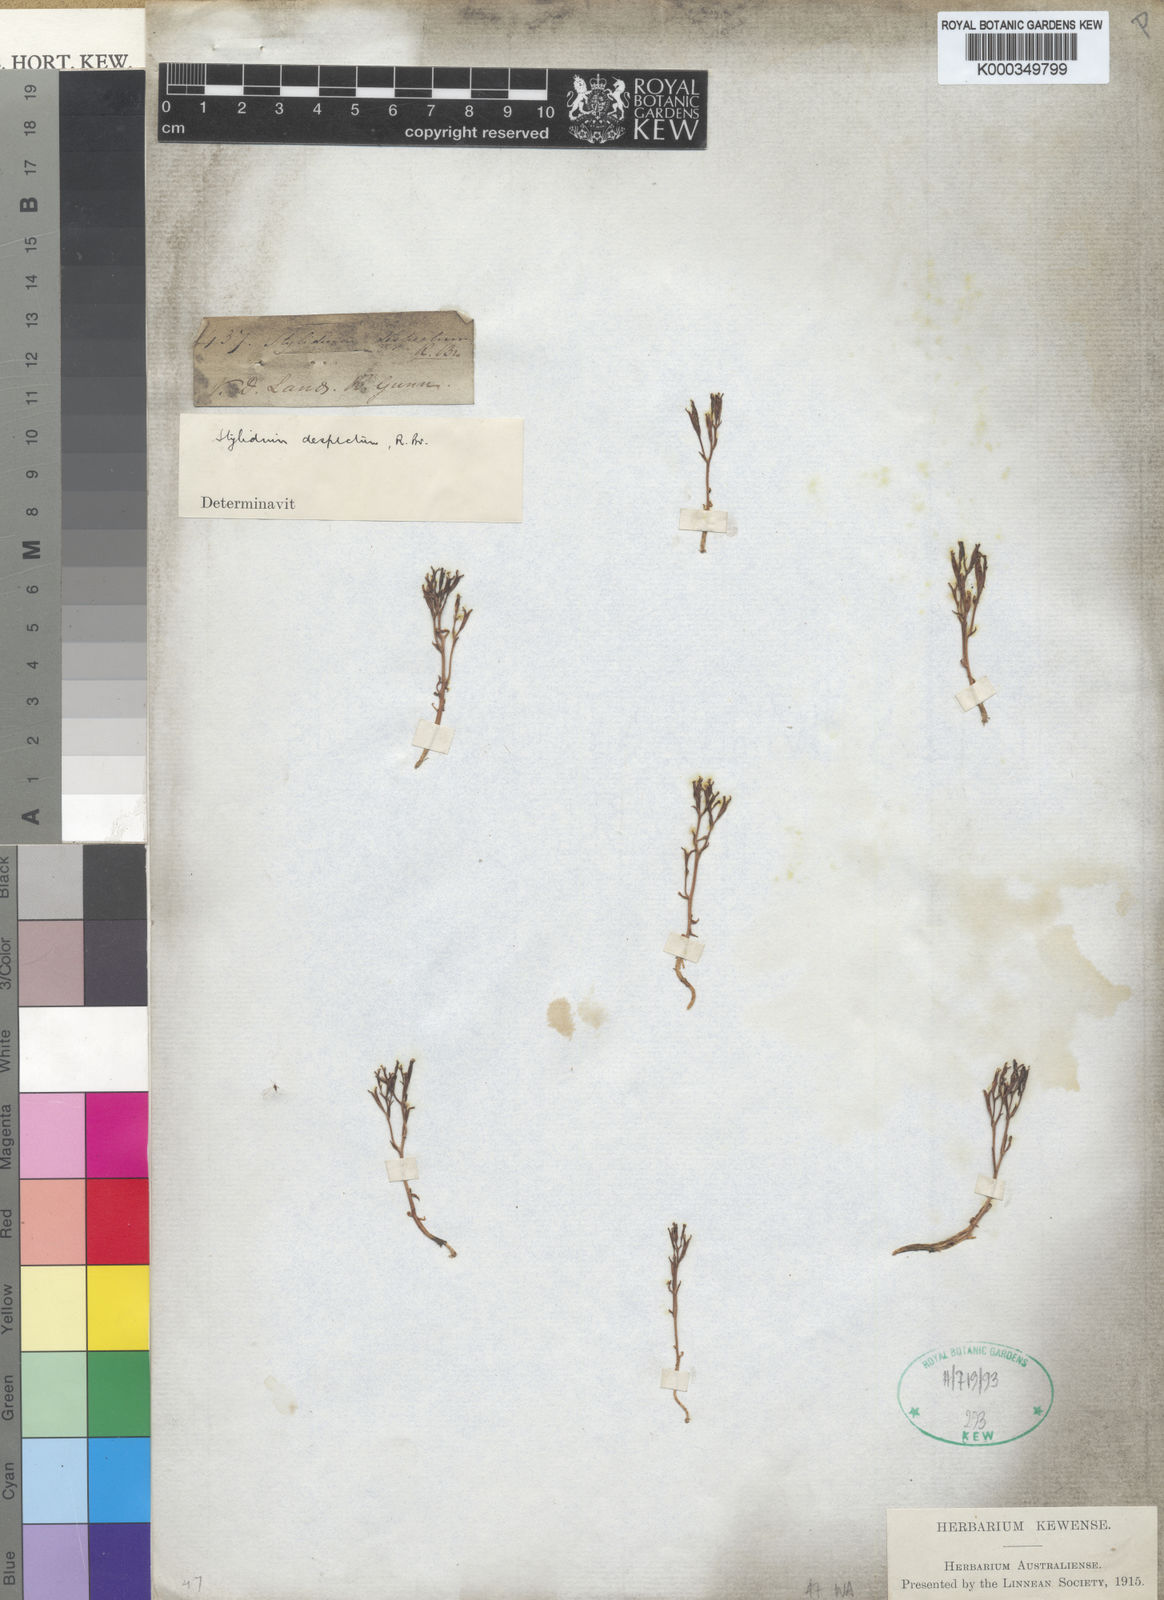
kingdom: Plantae
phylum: Tracheophyta
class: Magnoliopsida
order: Asterales
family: Stylidiaceae
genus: Stylidium
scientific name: Stylidium despectum
